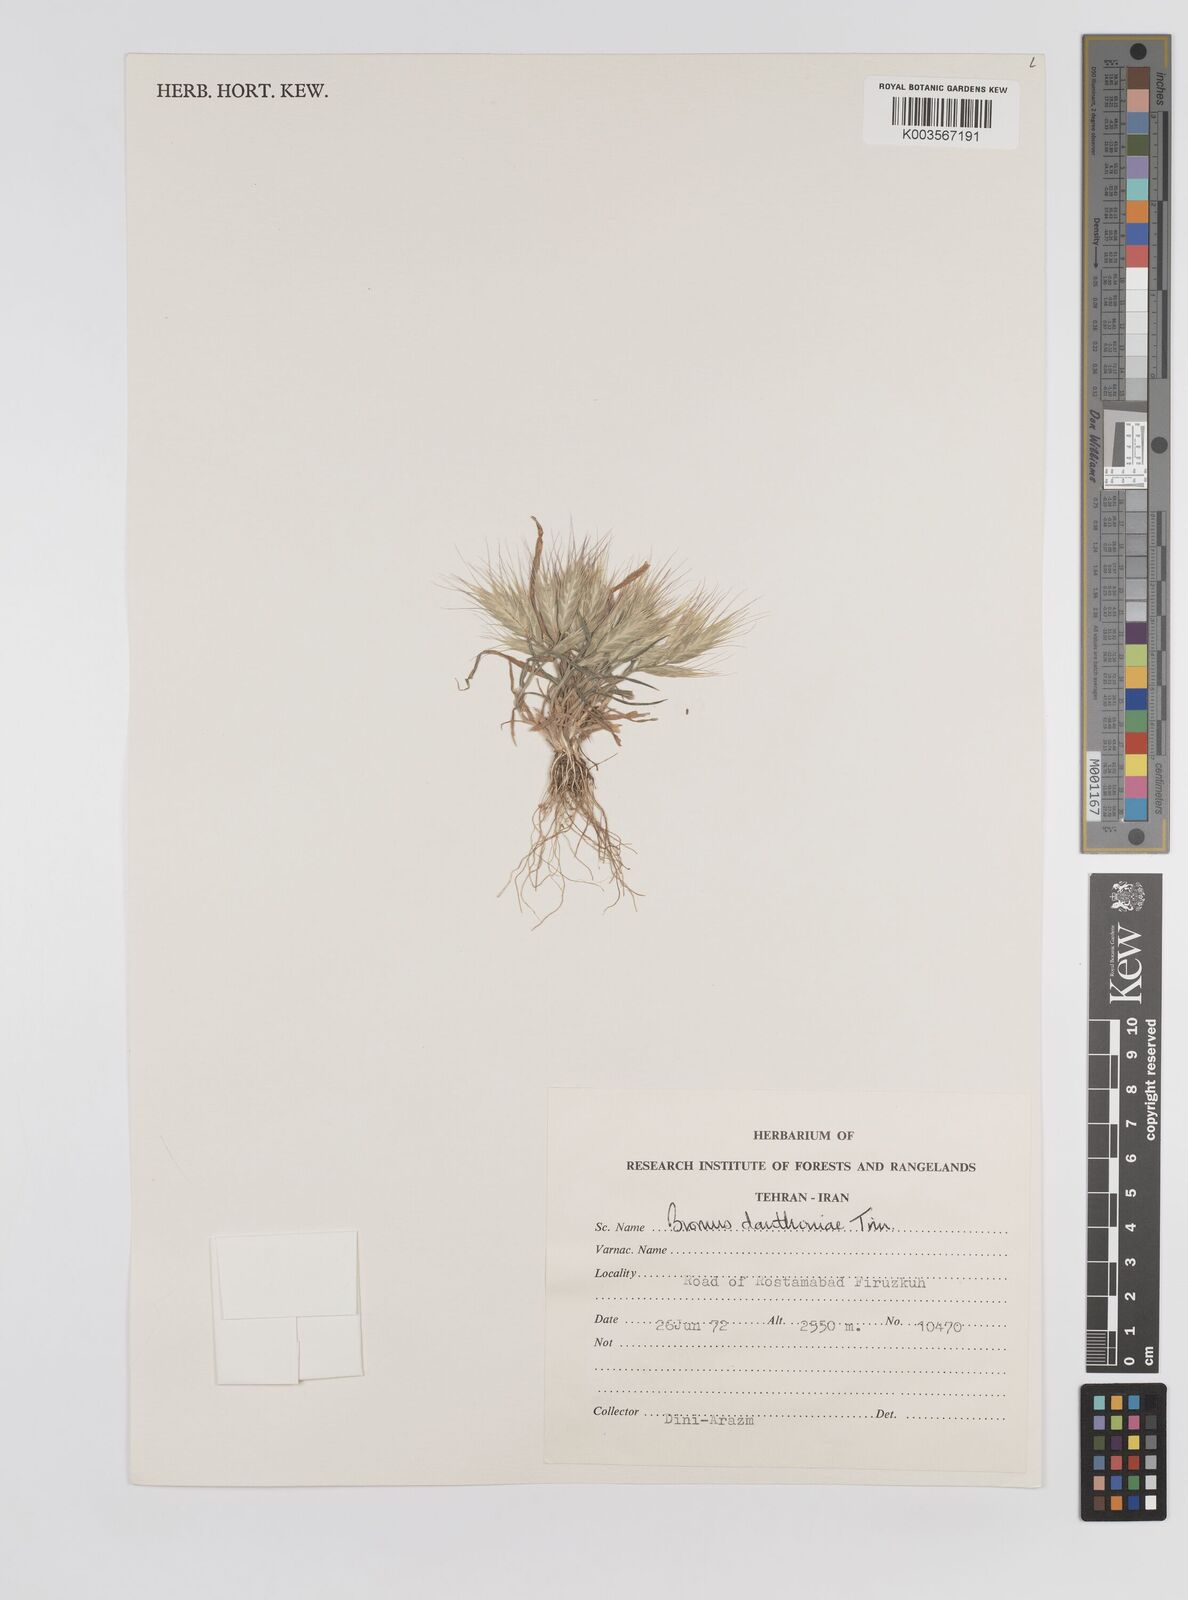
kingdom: Plantae
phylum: Tracheophyta
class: Liliopsida
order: Poales
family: Poaceae
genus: Bromus
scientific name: Bromus danthoniae
